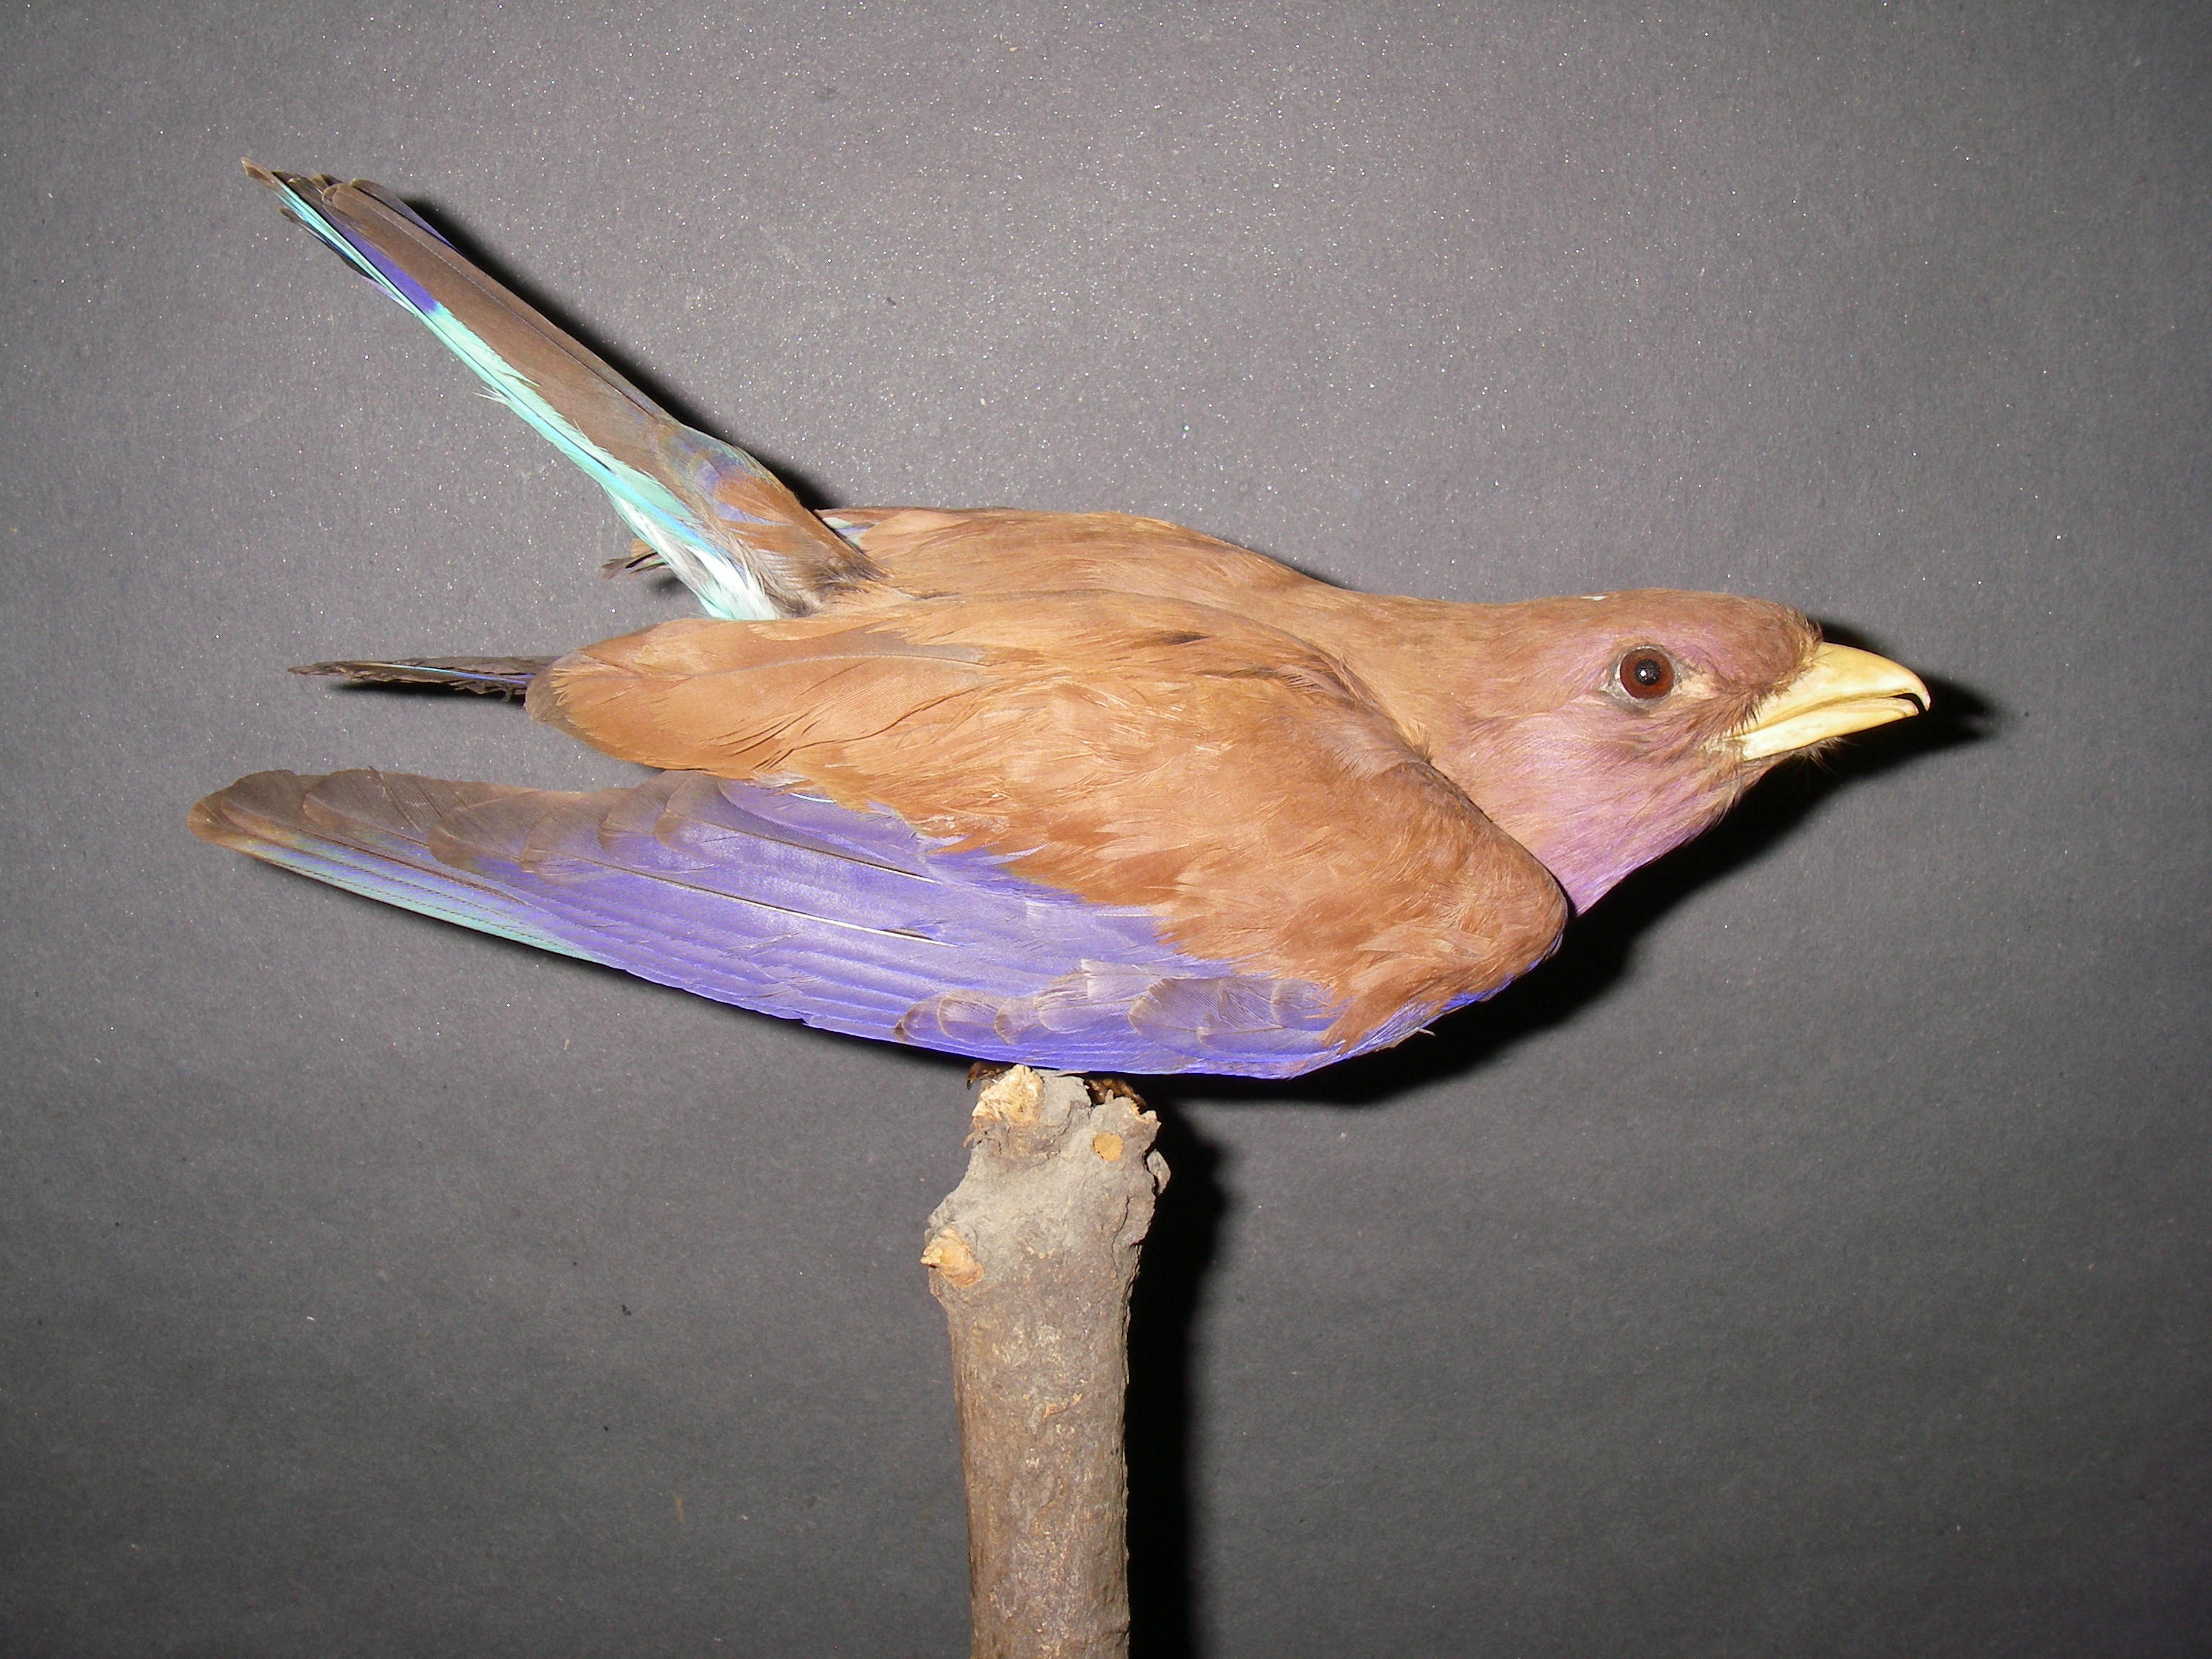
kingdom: Animalia
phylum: Chordata
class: Aves
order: Coraciiformes
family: Coraciidae
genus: Eurystomus
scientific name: Eurystomus glaucurus
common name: Broad-billed roller
